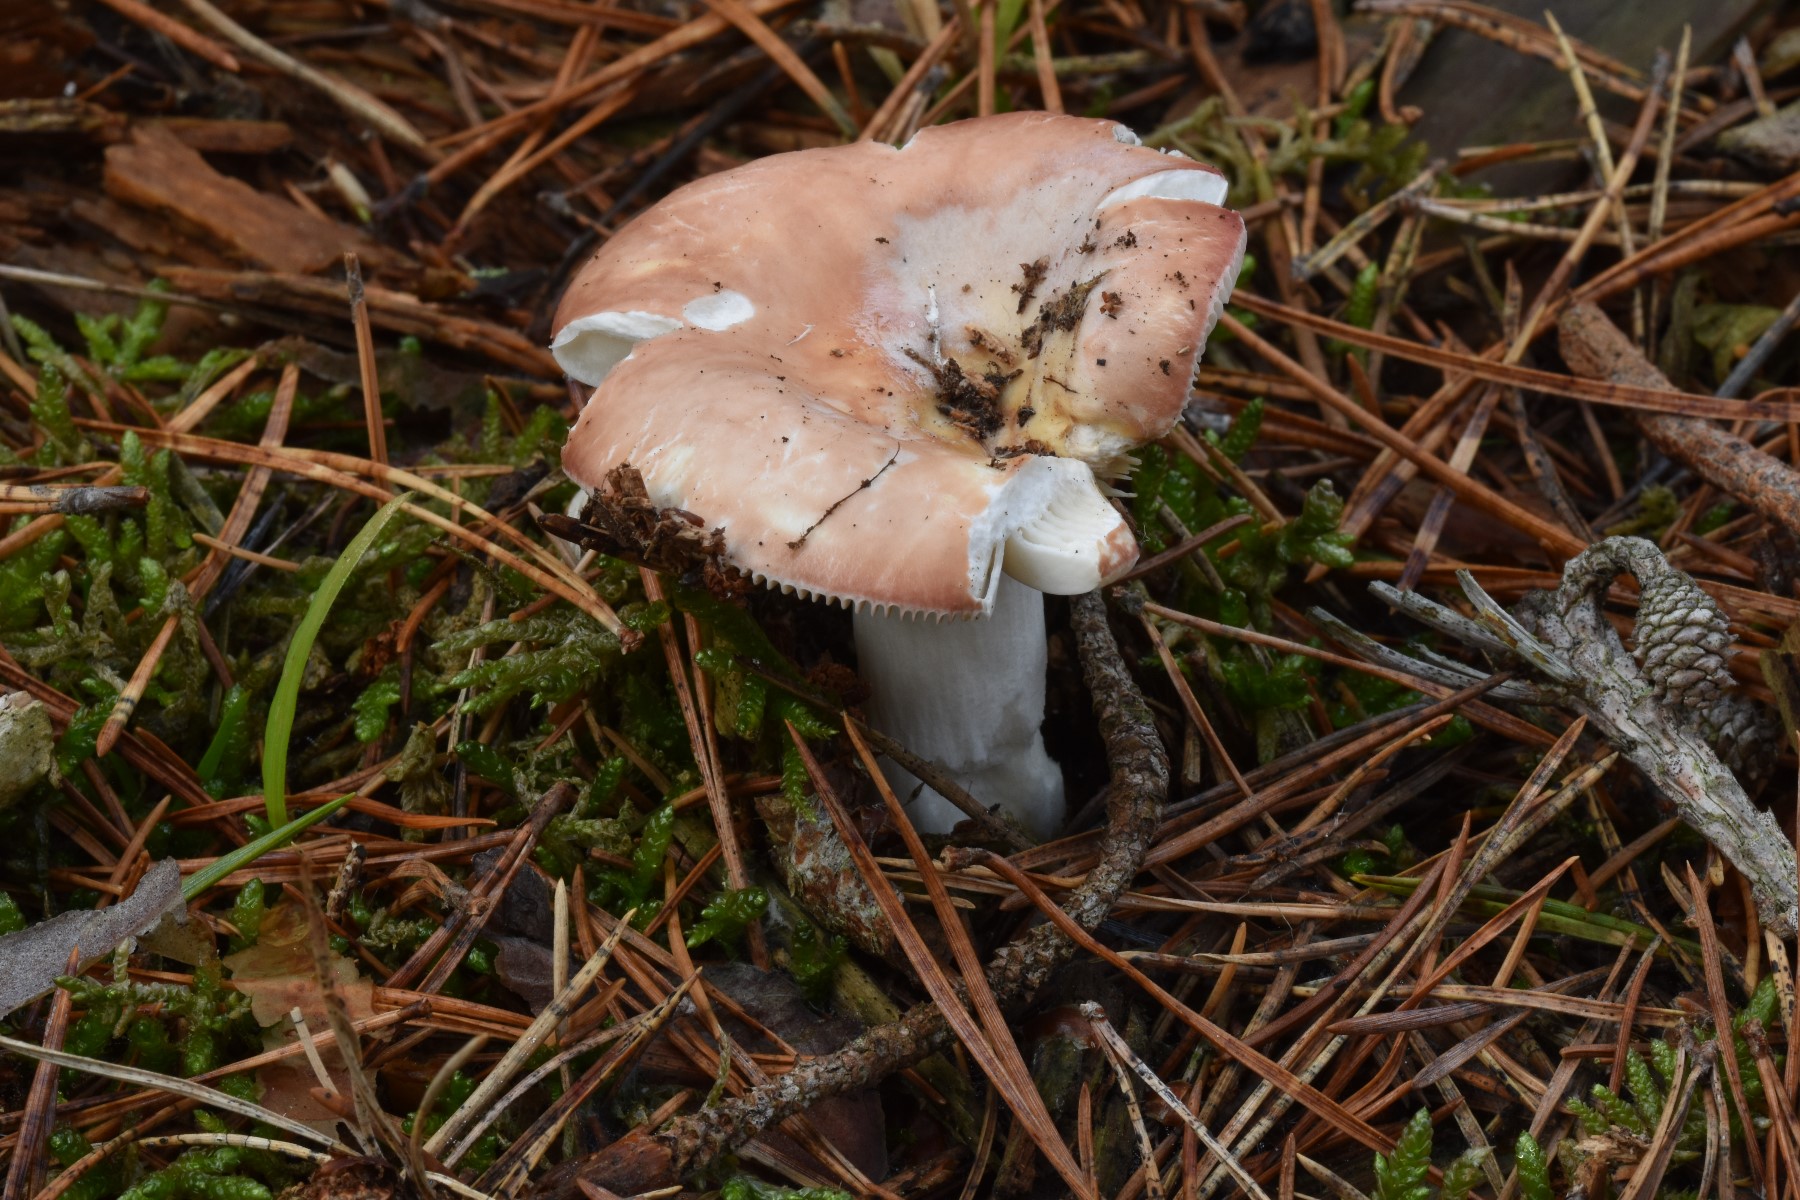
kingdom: Fungi
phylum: Basidiomycota
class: Agaricomycetes
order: Russulales
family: Russulaceae
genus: Russula
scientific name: Russula velenovskyi
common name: orangerød skørhat
